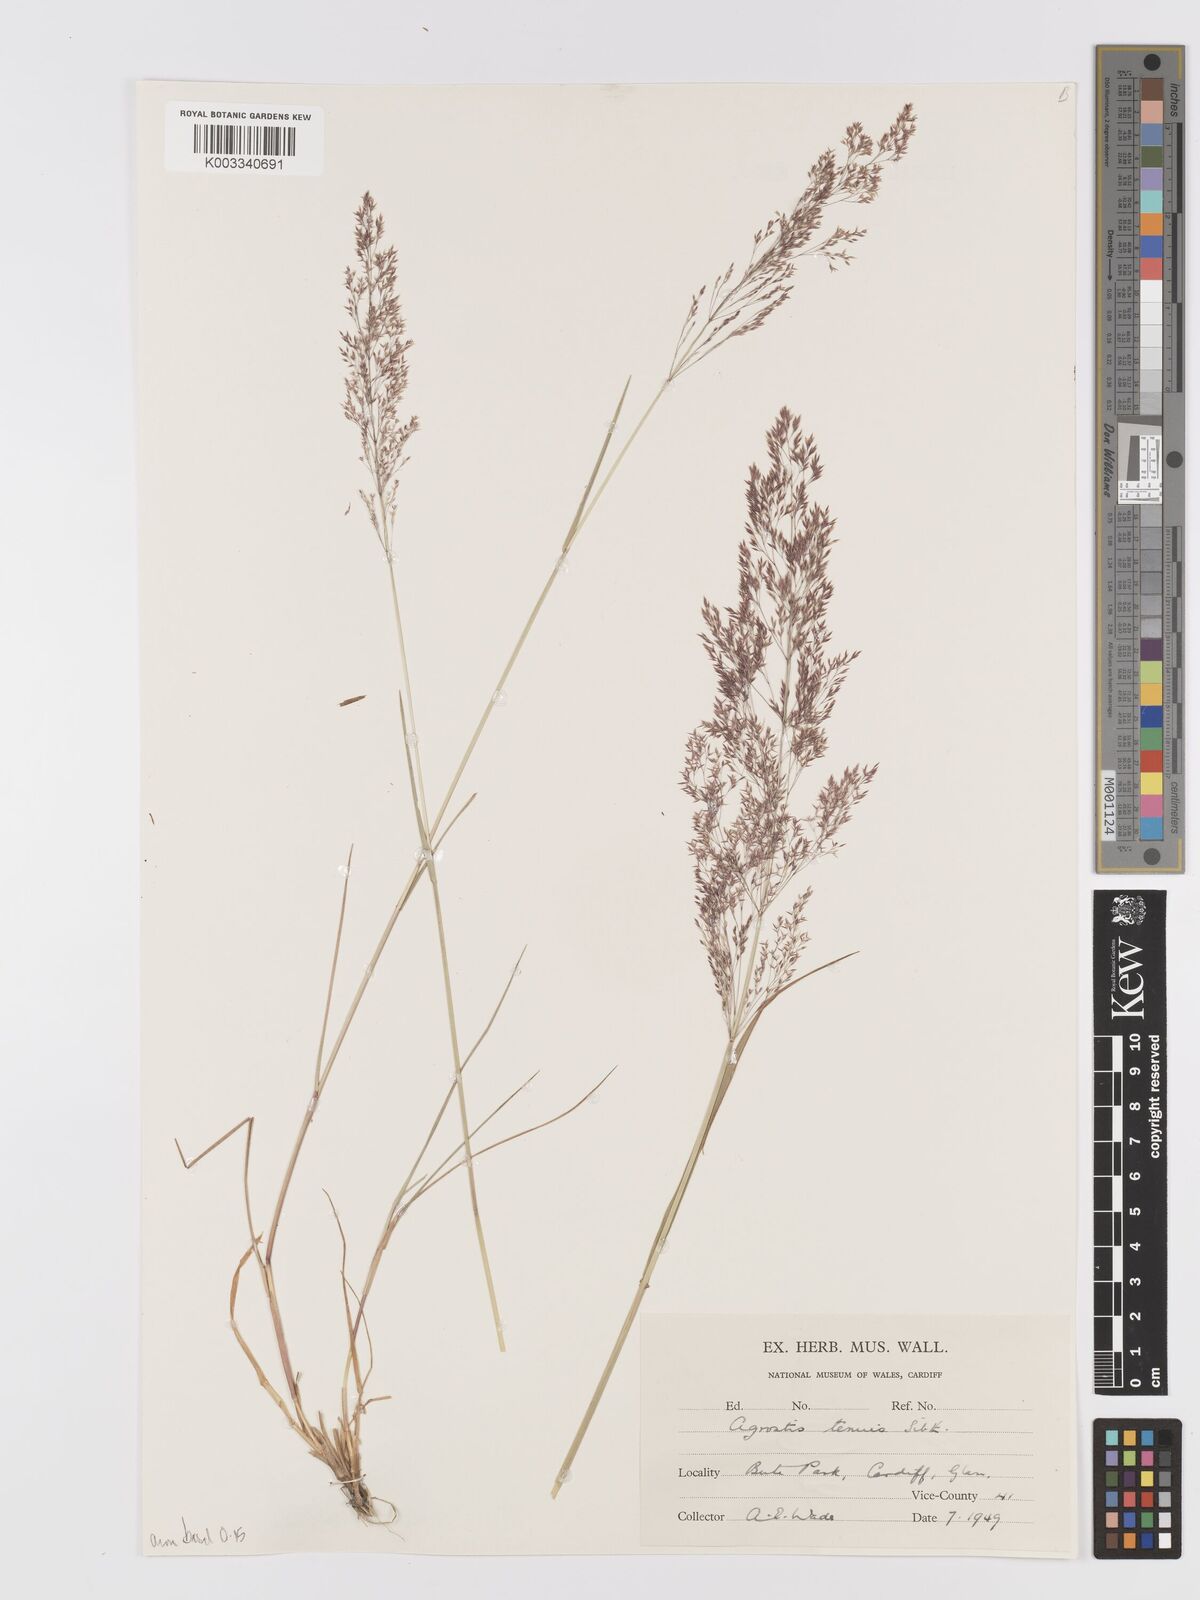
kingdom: Plantae
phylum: Tracheophyta
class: Liliopsida
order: Poales
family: Poaceae
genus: Agrostis
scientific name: Agrostis capillaris
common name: Colonial bentgrass
